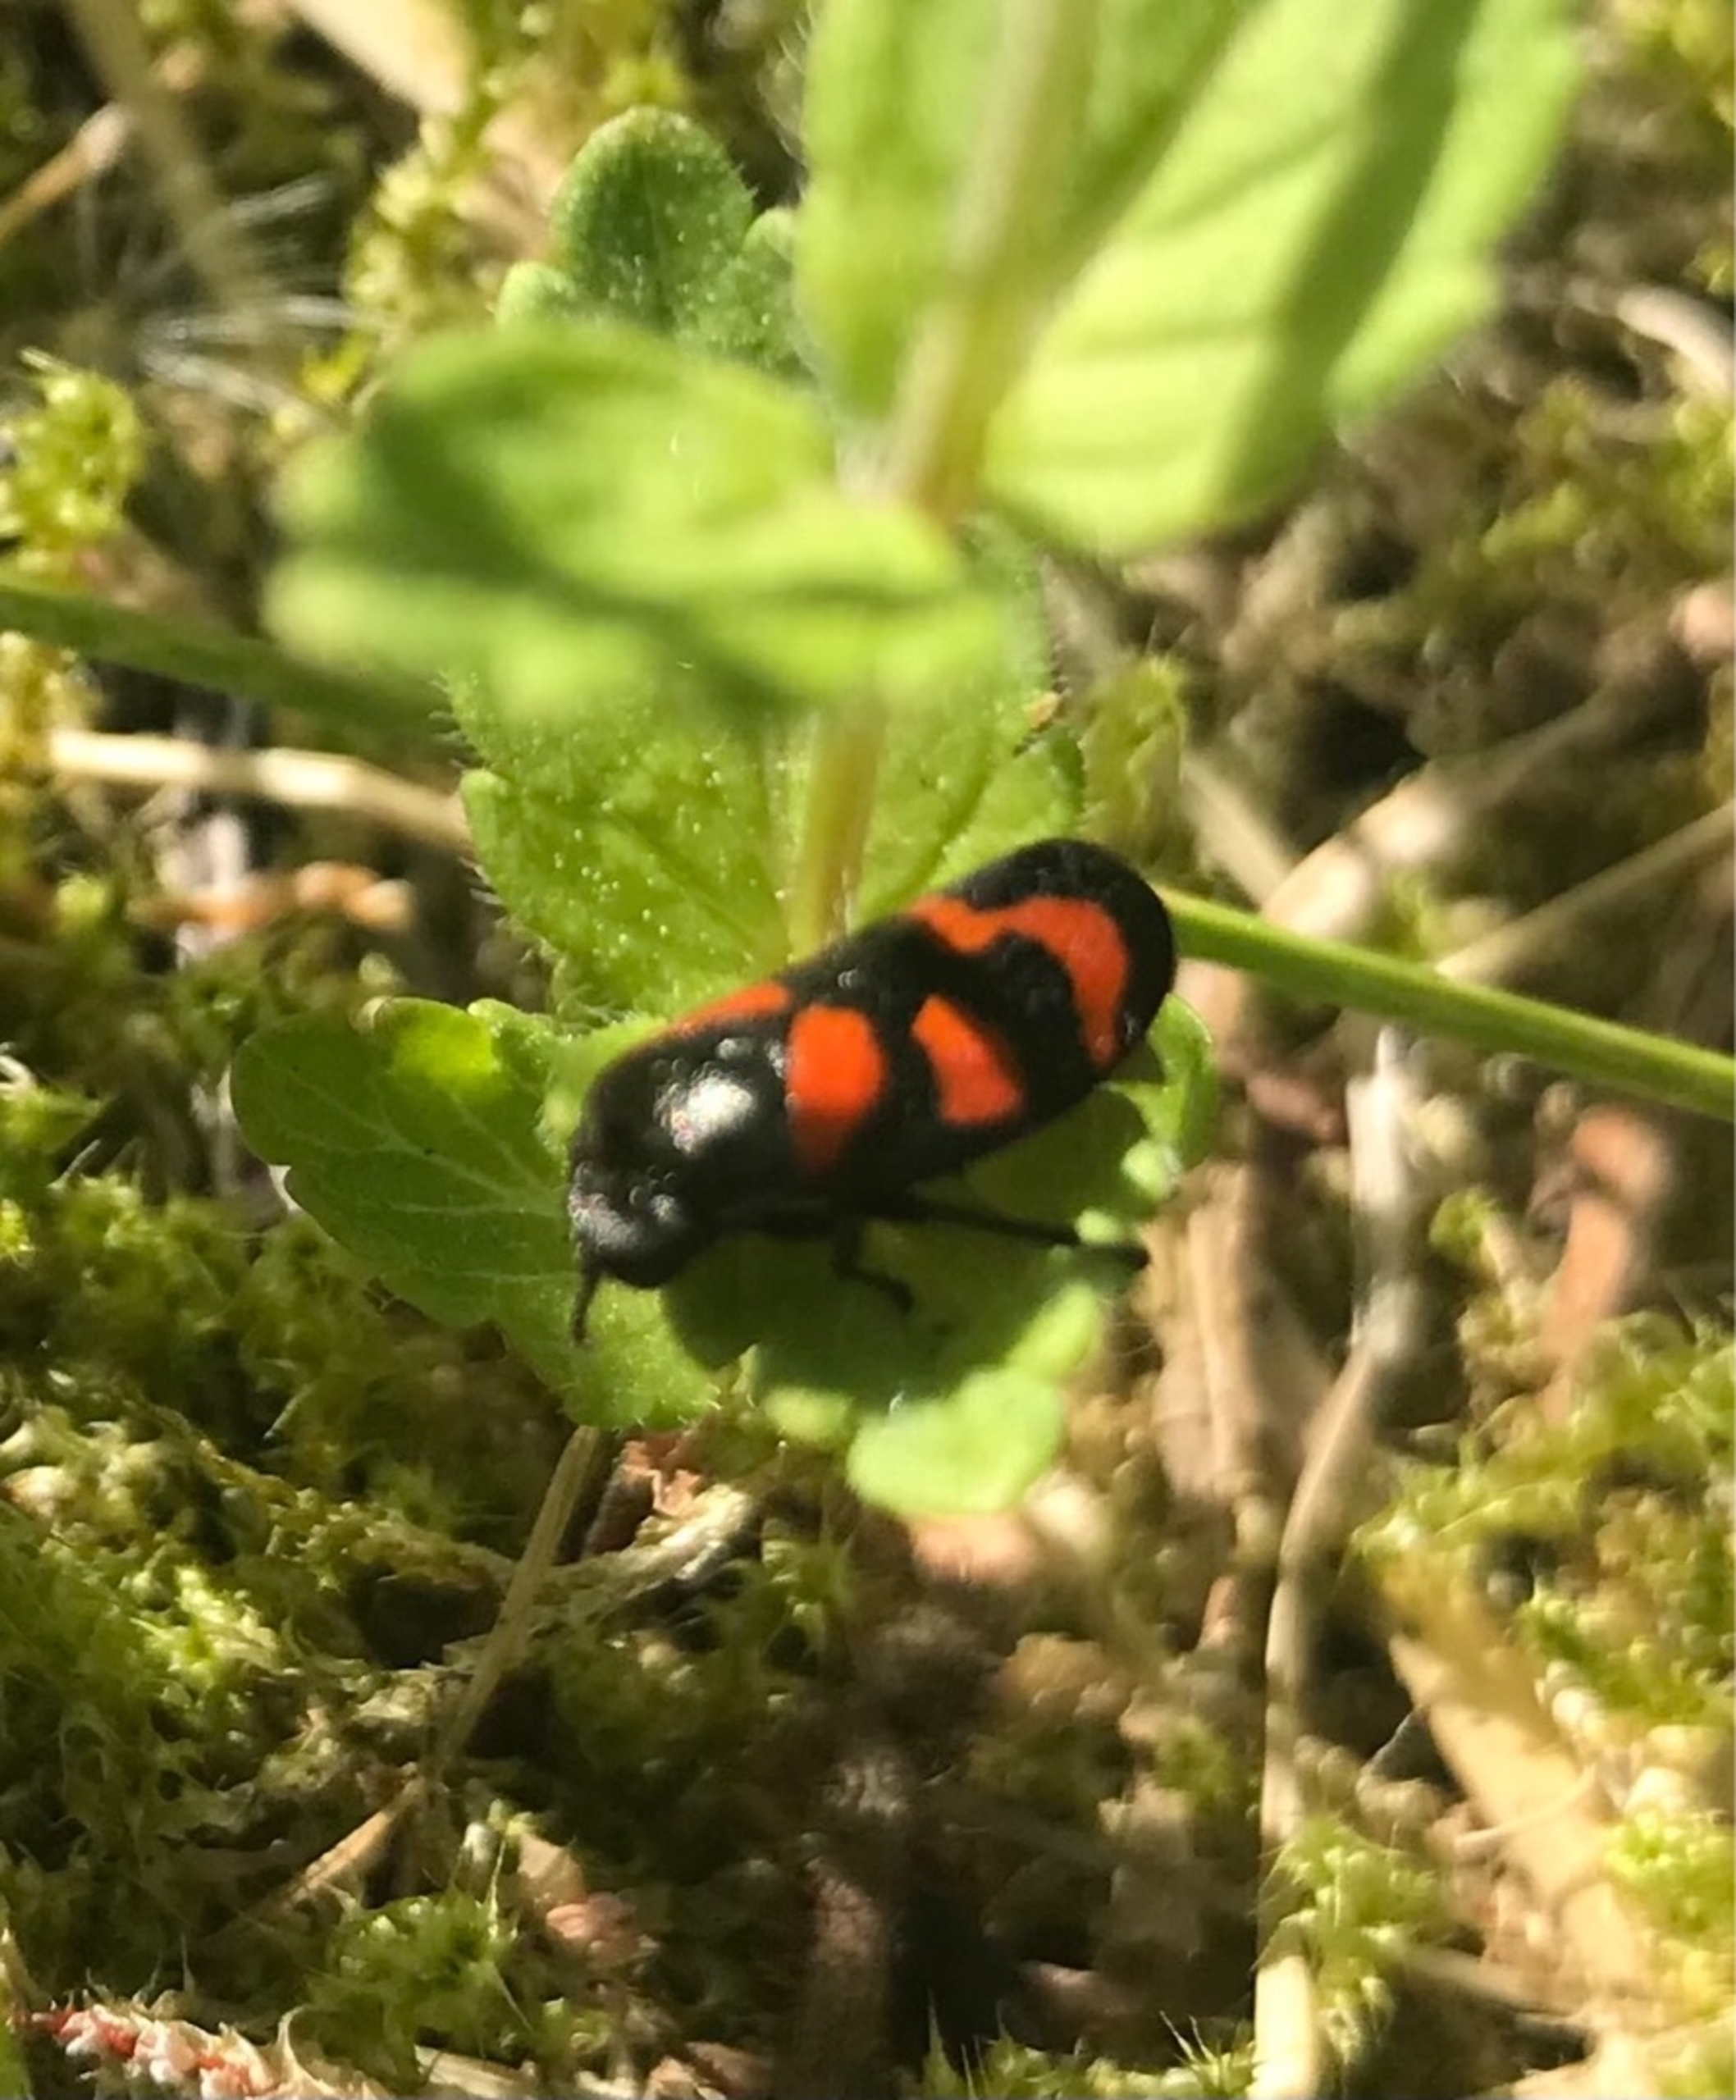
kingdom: Animalia
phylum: Arthropoda
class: Insecta
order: Hemiptera
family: Cercopidae
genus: Cercopis
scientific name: Cercopis vulnerata
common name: Blodcikade
